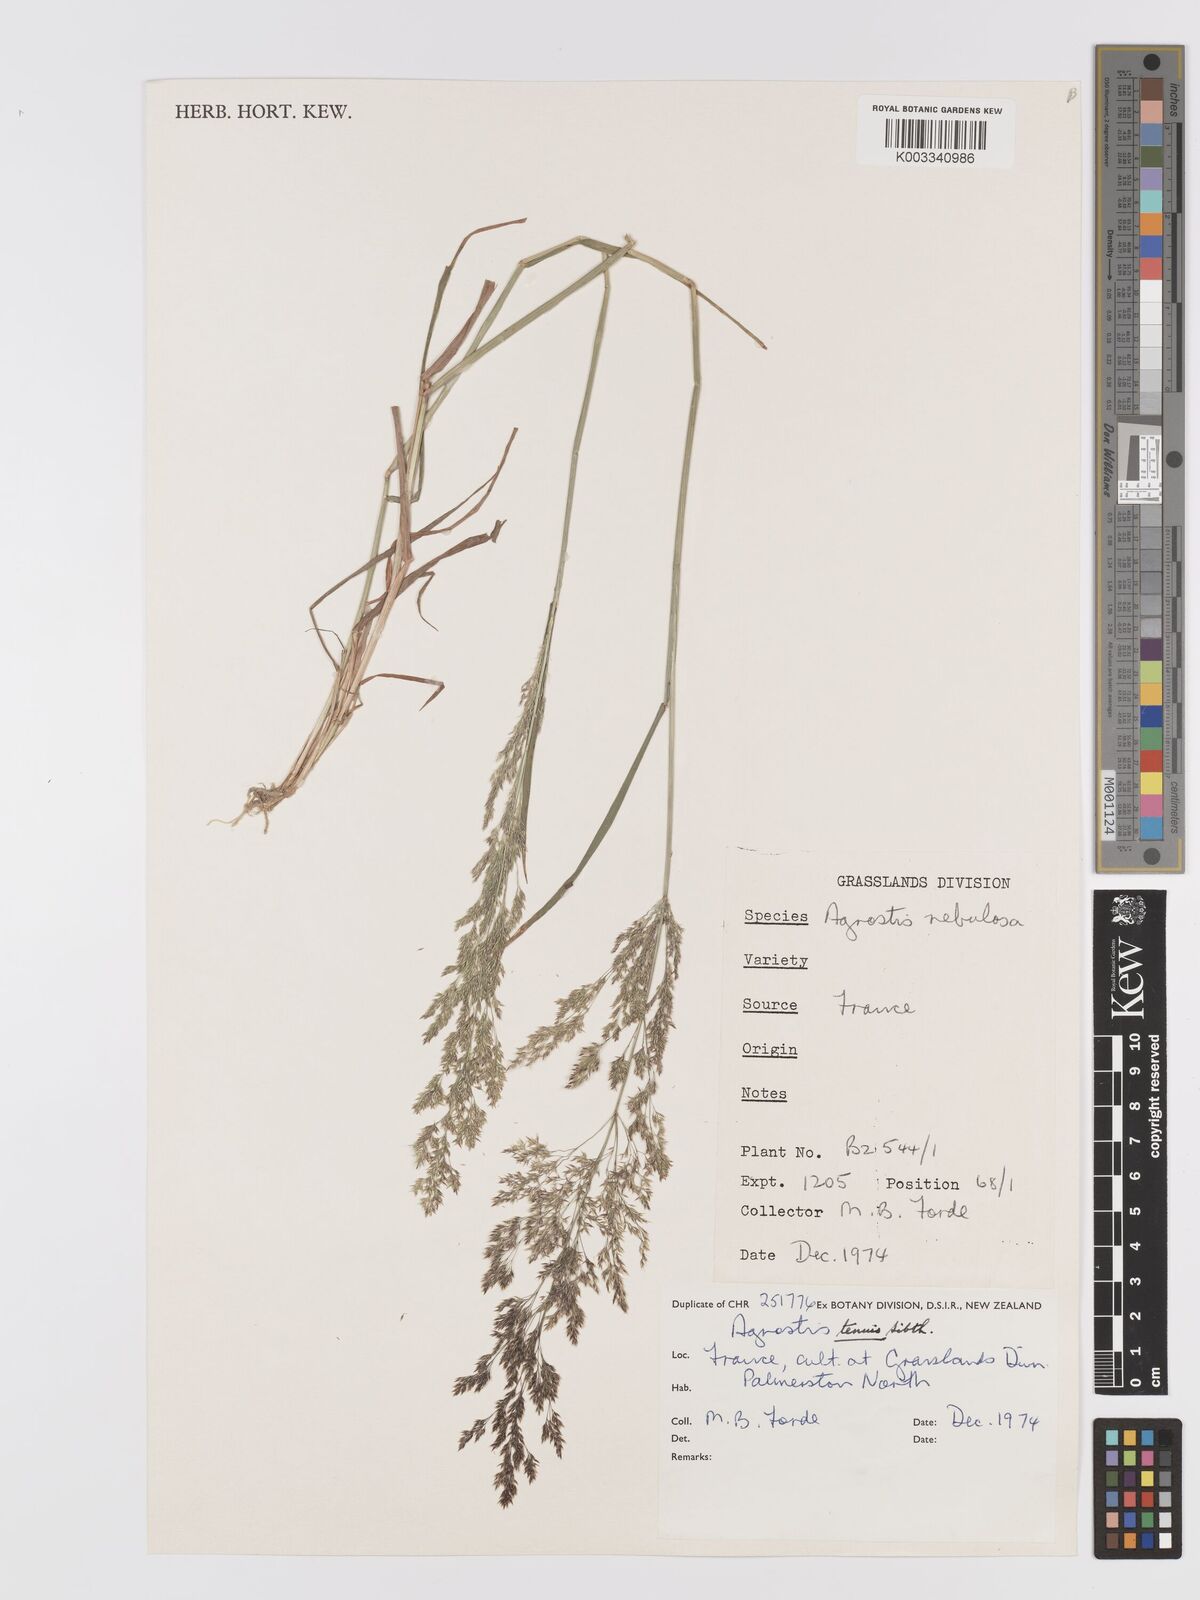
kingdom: Plantae
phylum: Tracheophyta
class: Liliopsida
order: Poales
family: Poaceae
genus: Agrostis
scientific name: Agrostis capillaris
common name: Colonial bentgrass
